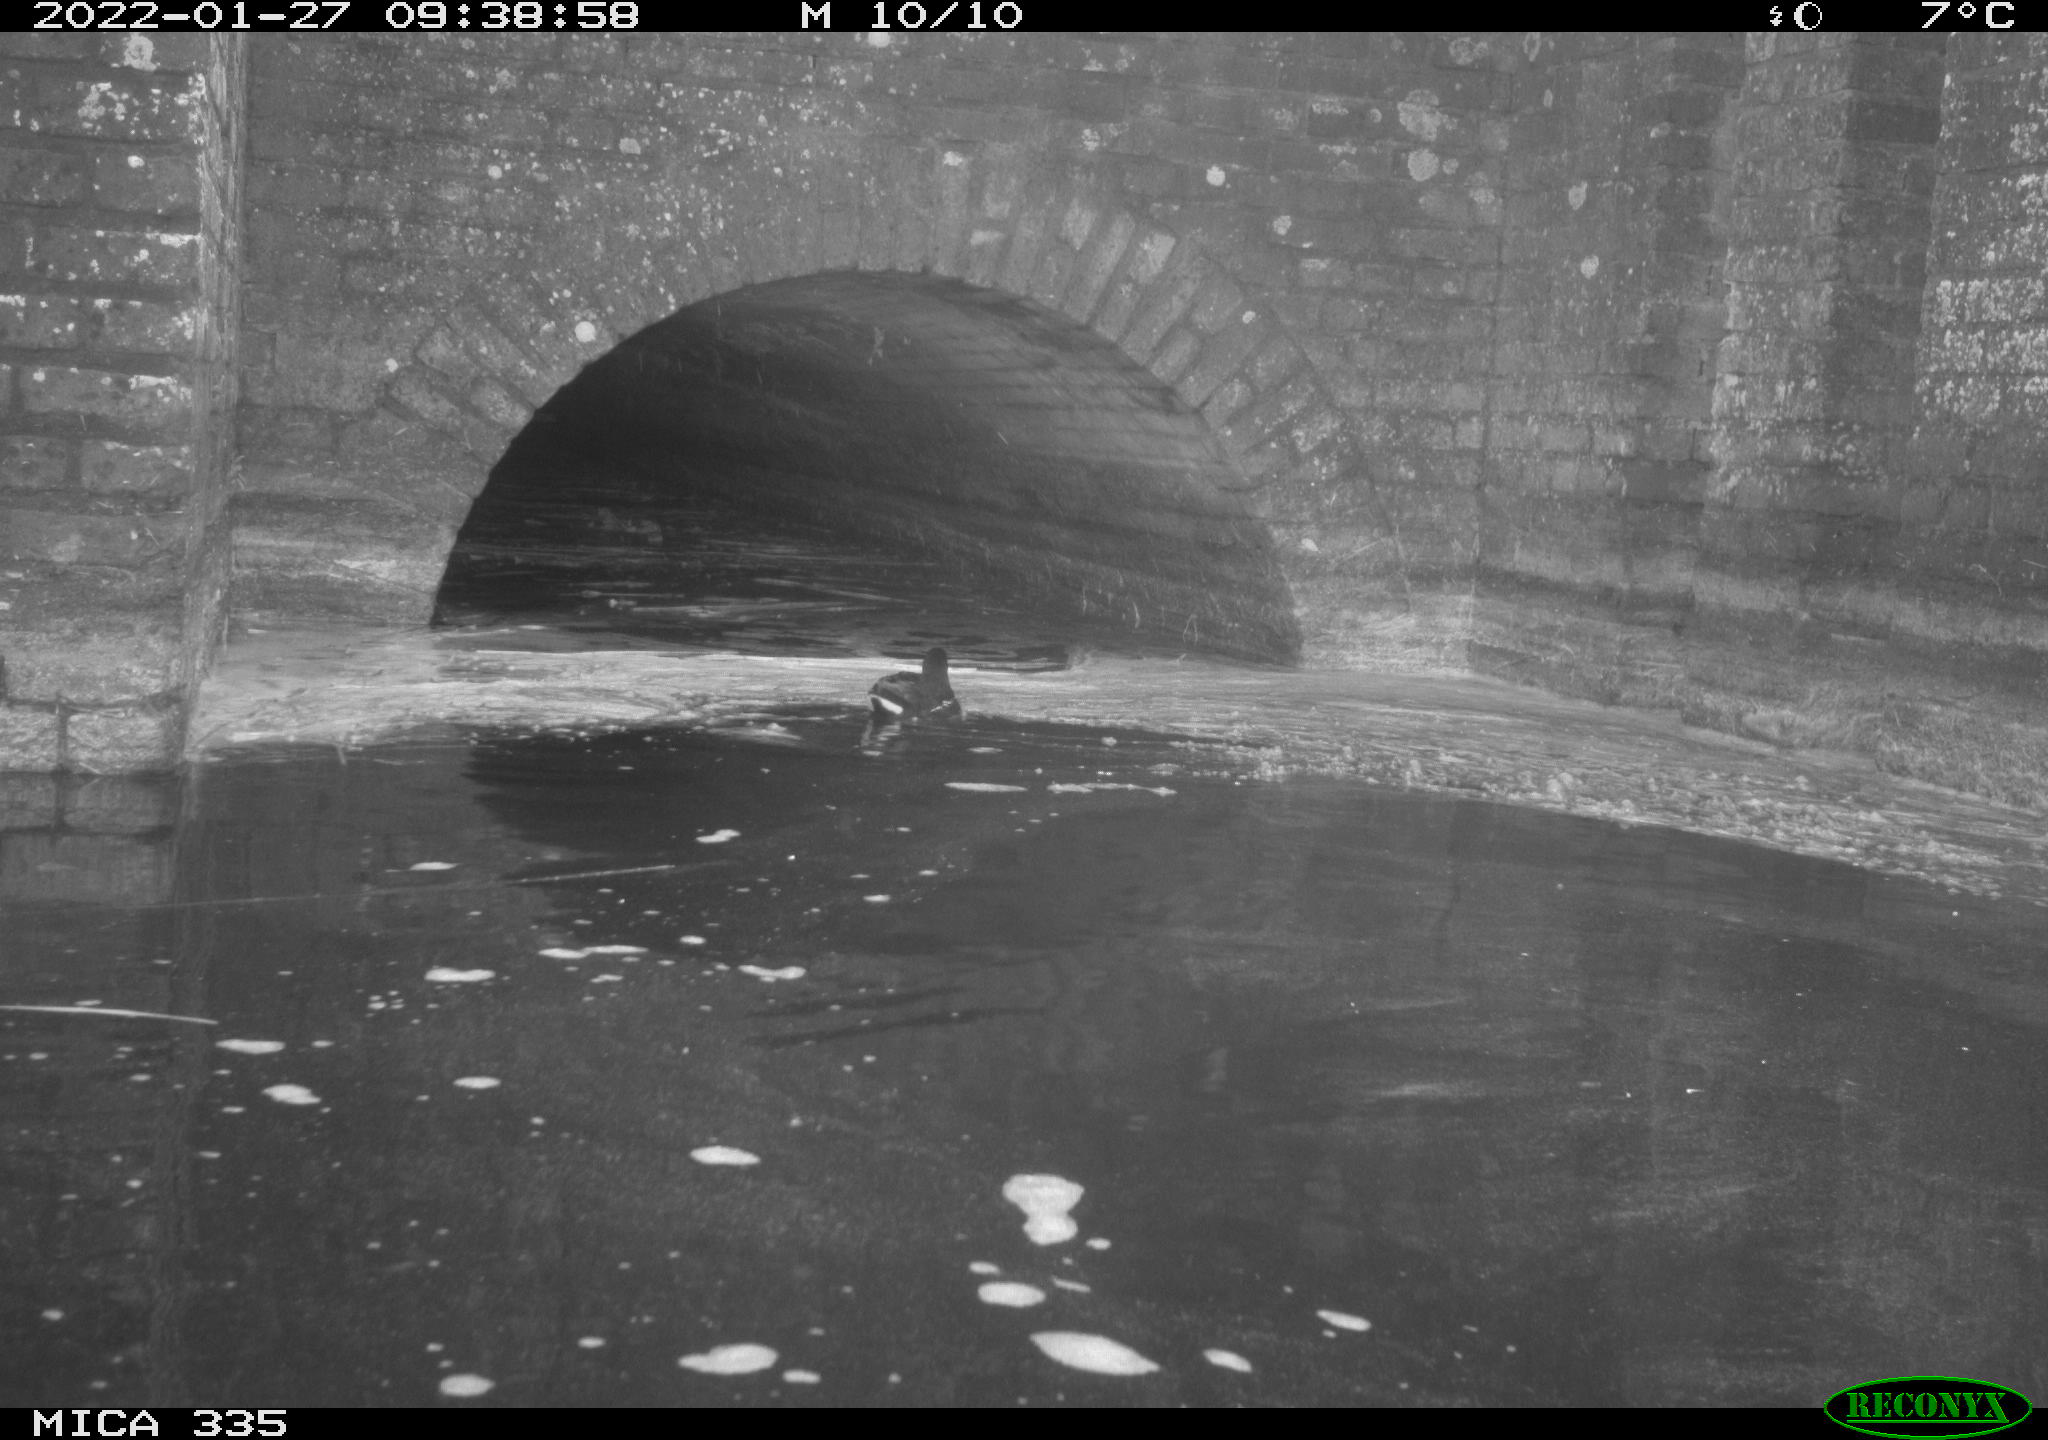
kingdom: Animalia
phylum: Chordata
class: Aves
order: Gruiformes
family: Rallidae
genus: Gallinula
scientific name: Gallinula chloropus
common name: Common moorhen
